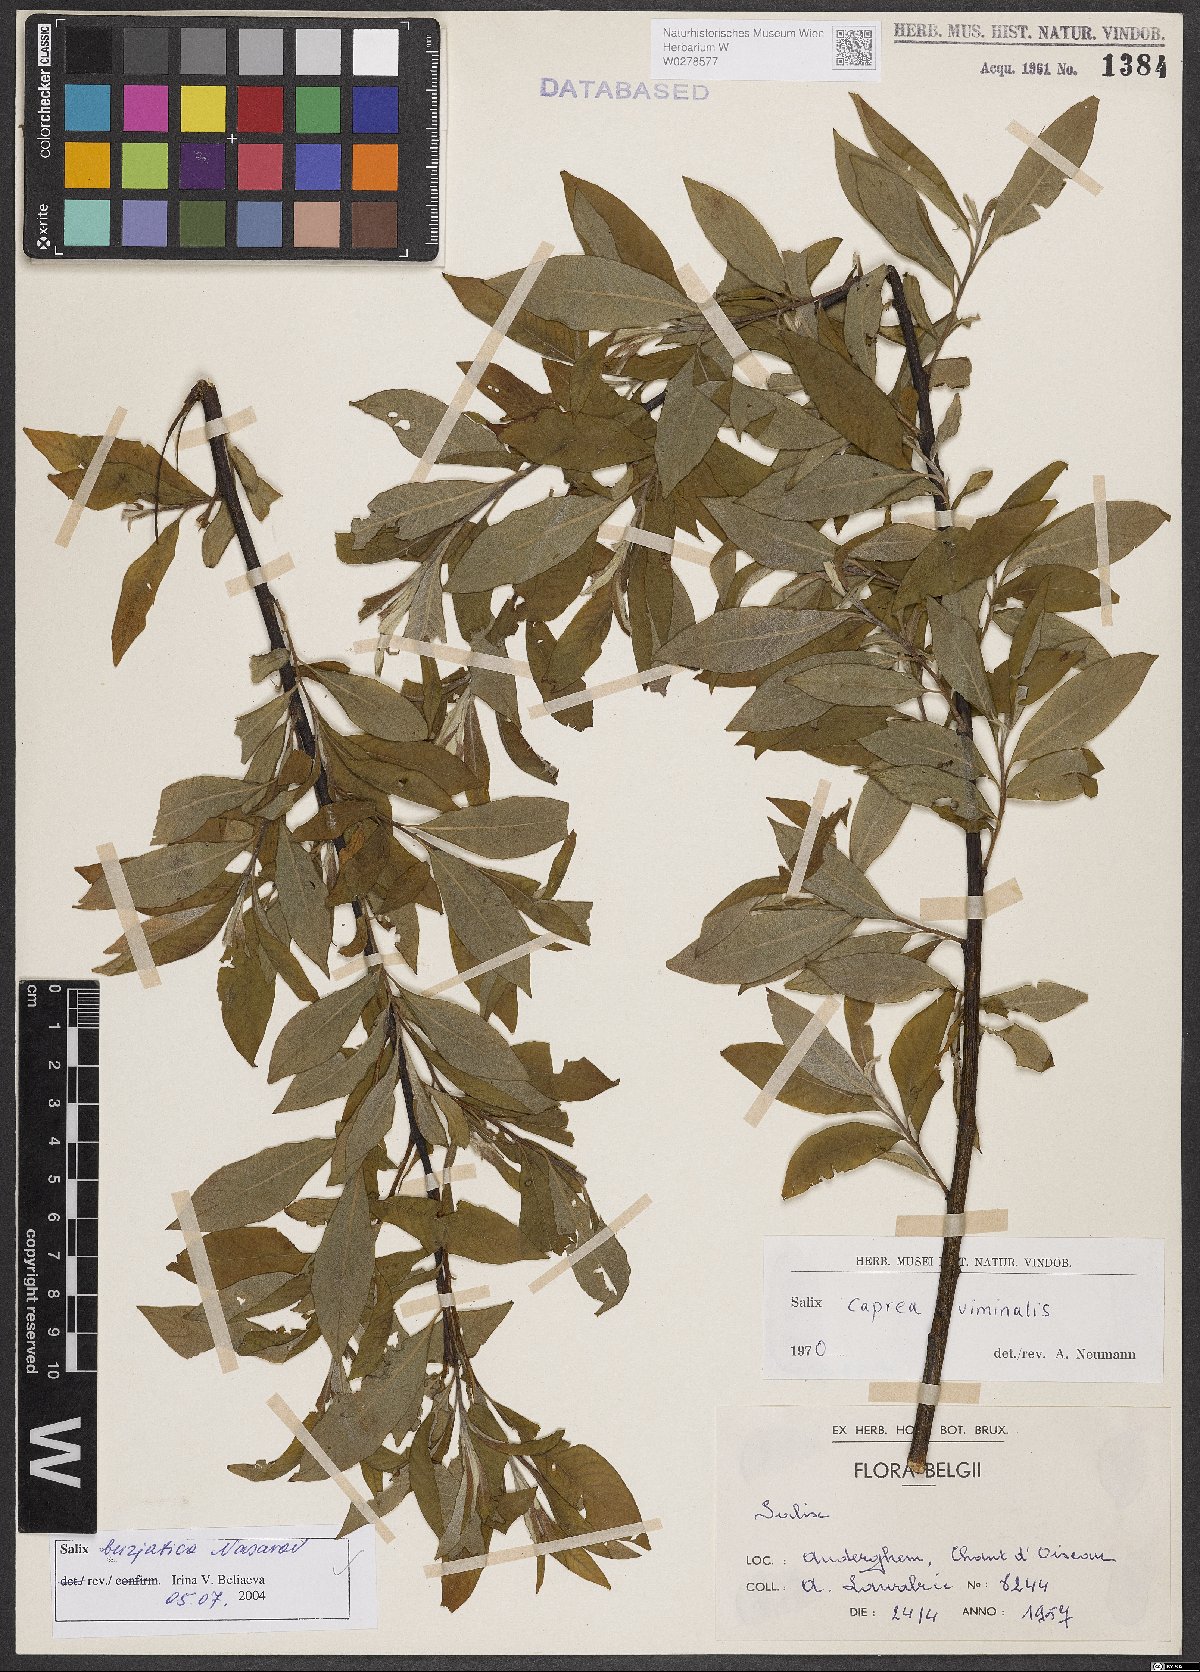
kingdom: Plantae
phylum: Tracheophyta
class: Magnoliopsida
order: Malpighiales
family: Salicaceae
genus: Salix
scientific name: Salix gmelinii
